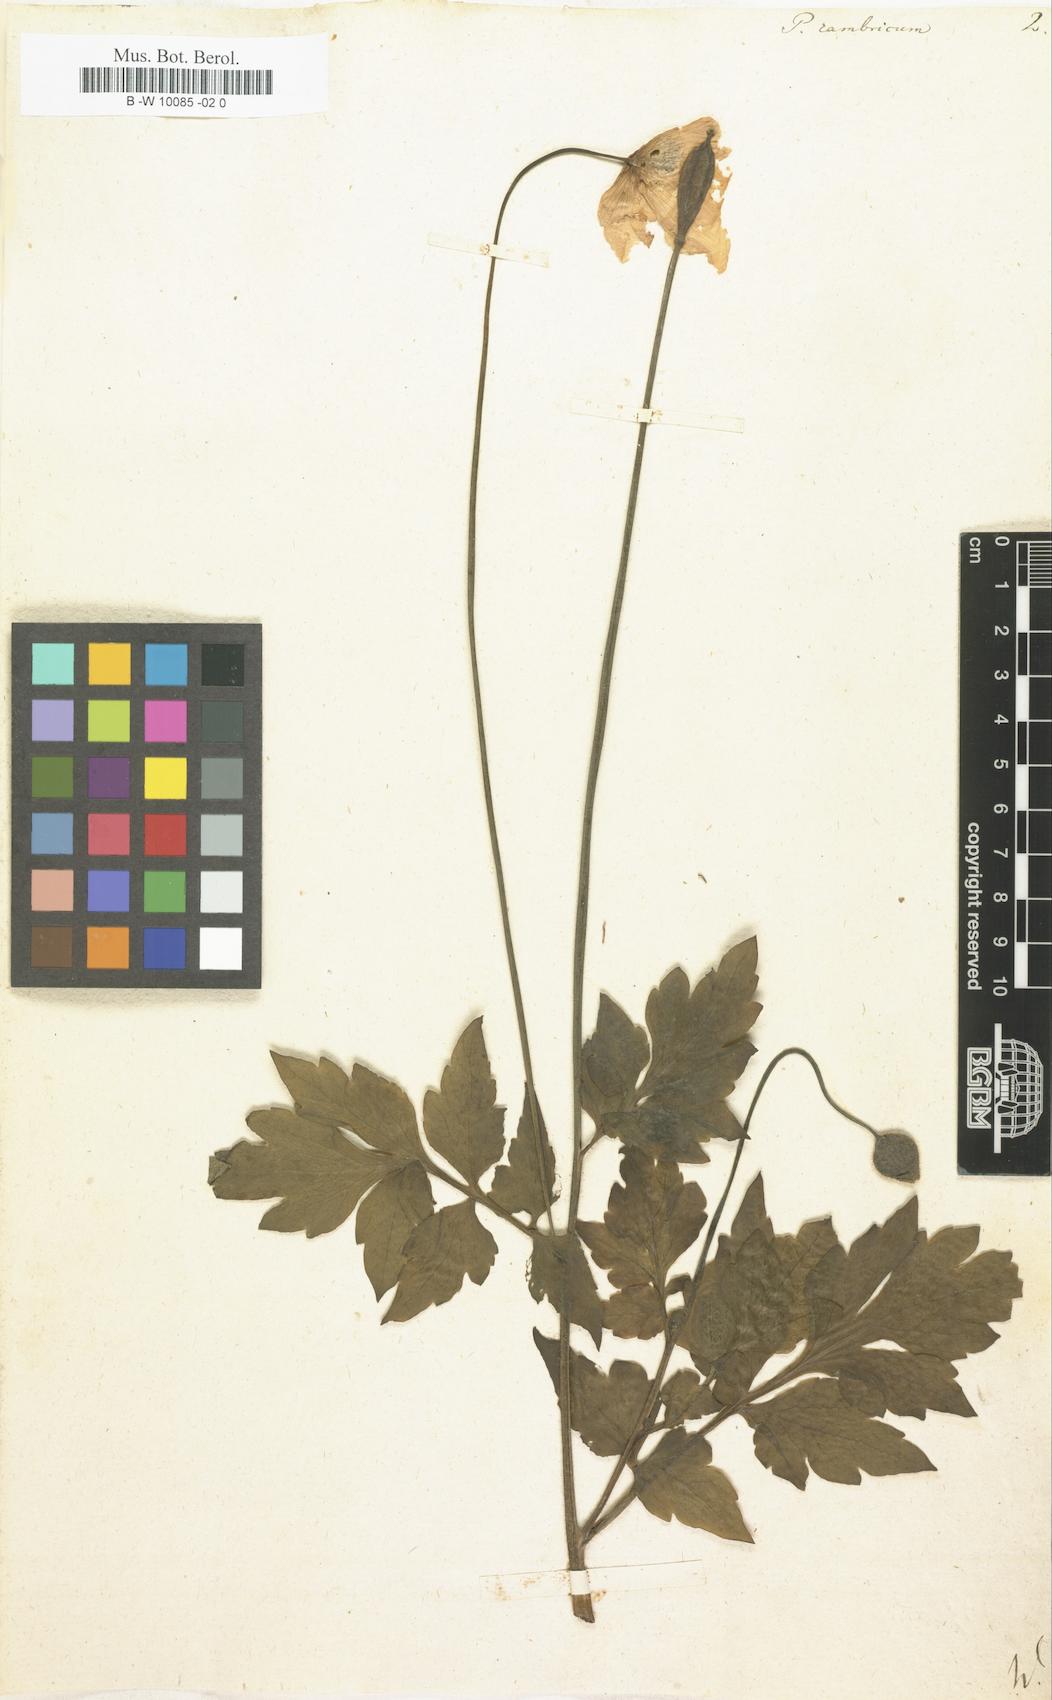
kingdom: Plantae
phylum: Tracheophyta
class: Magnoliopsida
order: Ranunculales
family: Papaveraceae
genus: Papaver
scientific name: Papaver cambricum
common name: Poppy
